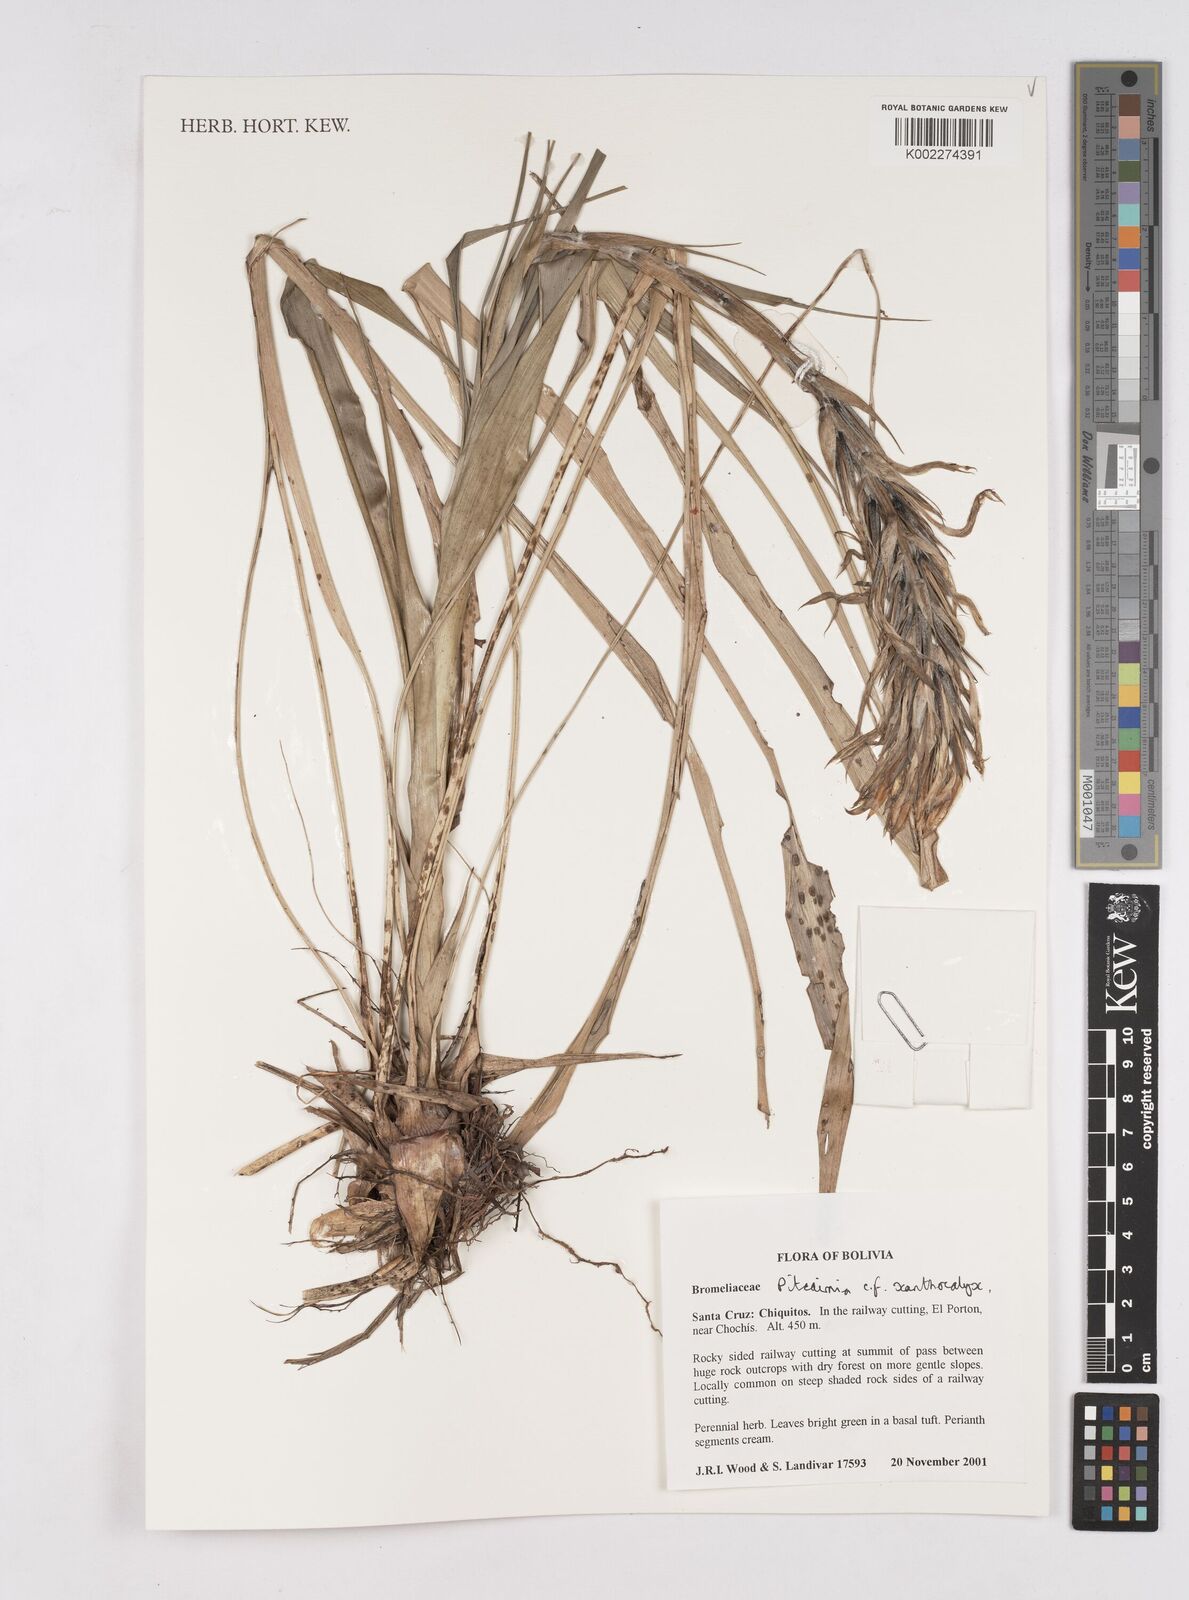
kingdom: Plantae
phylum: Tracheophyta
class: Liliopsida
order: Poales
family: Bromeliaceae
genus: Pitcairnia
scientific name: Pitcairnia
